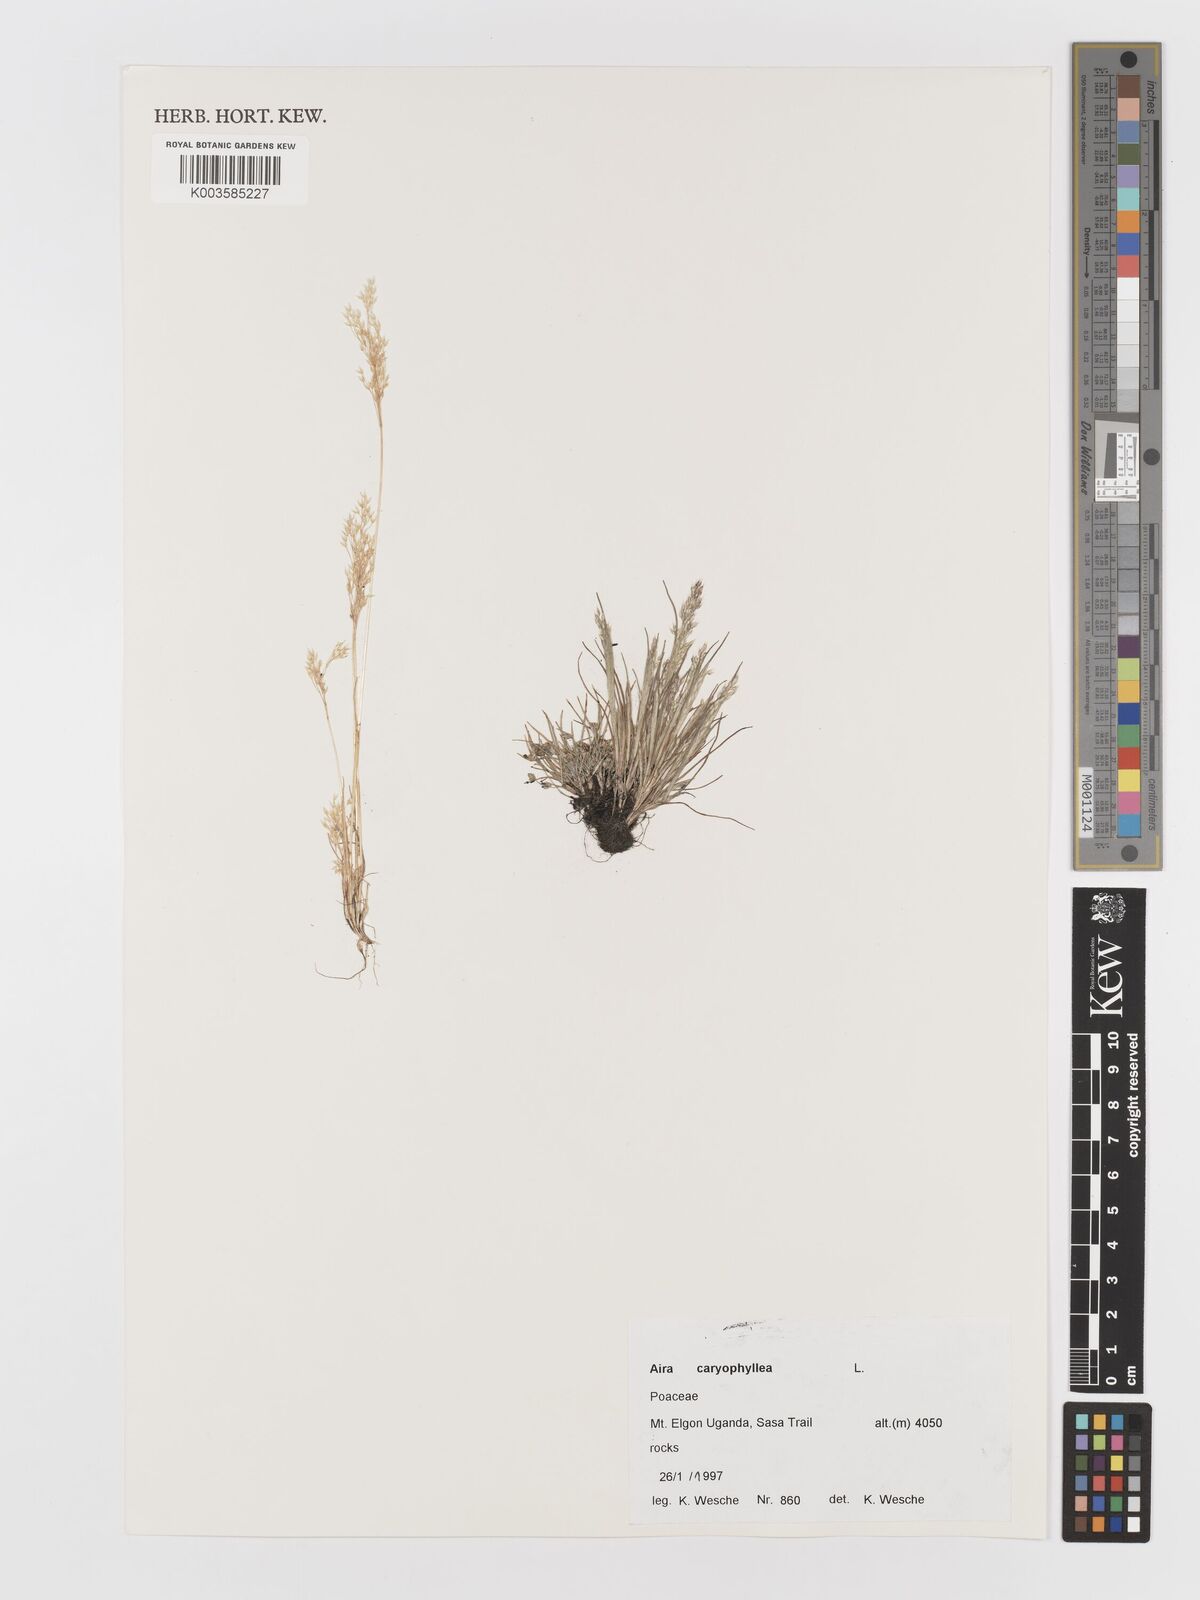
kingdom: Plantae
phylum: Tracheophyta
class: Liliopsida
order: Poales
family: Poaceae
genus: Aira
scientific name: Aira caryophyllea
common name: Silver hairgrass
